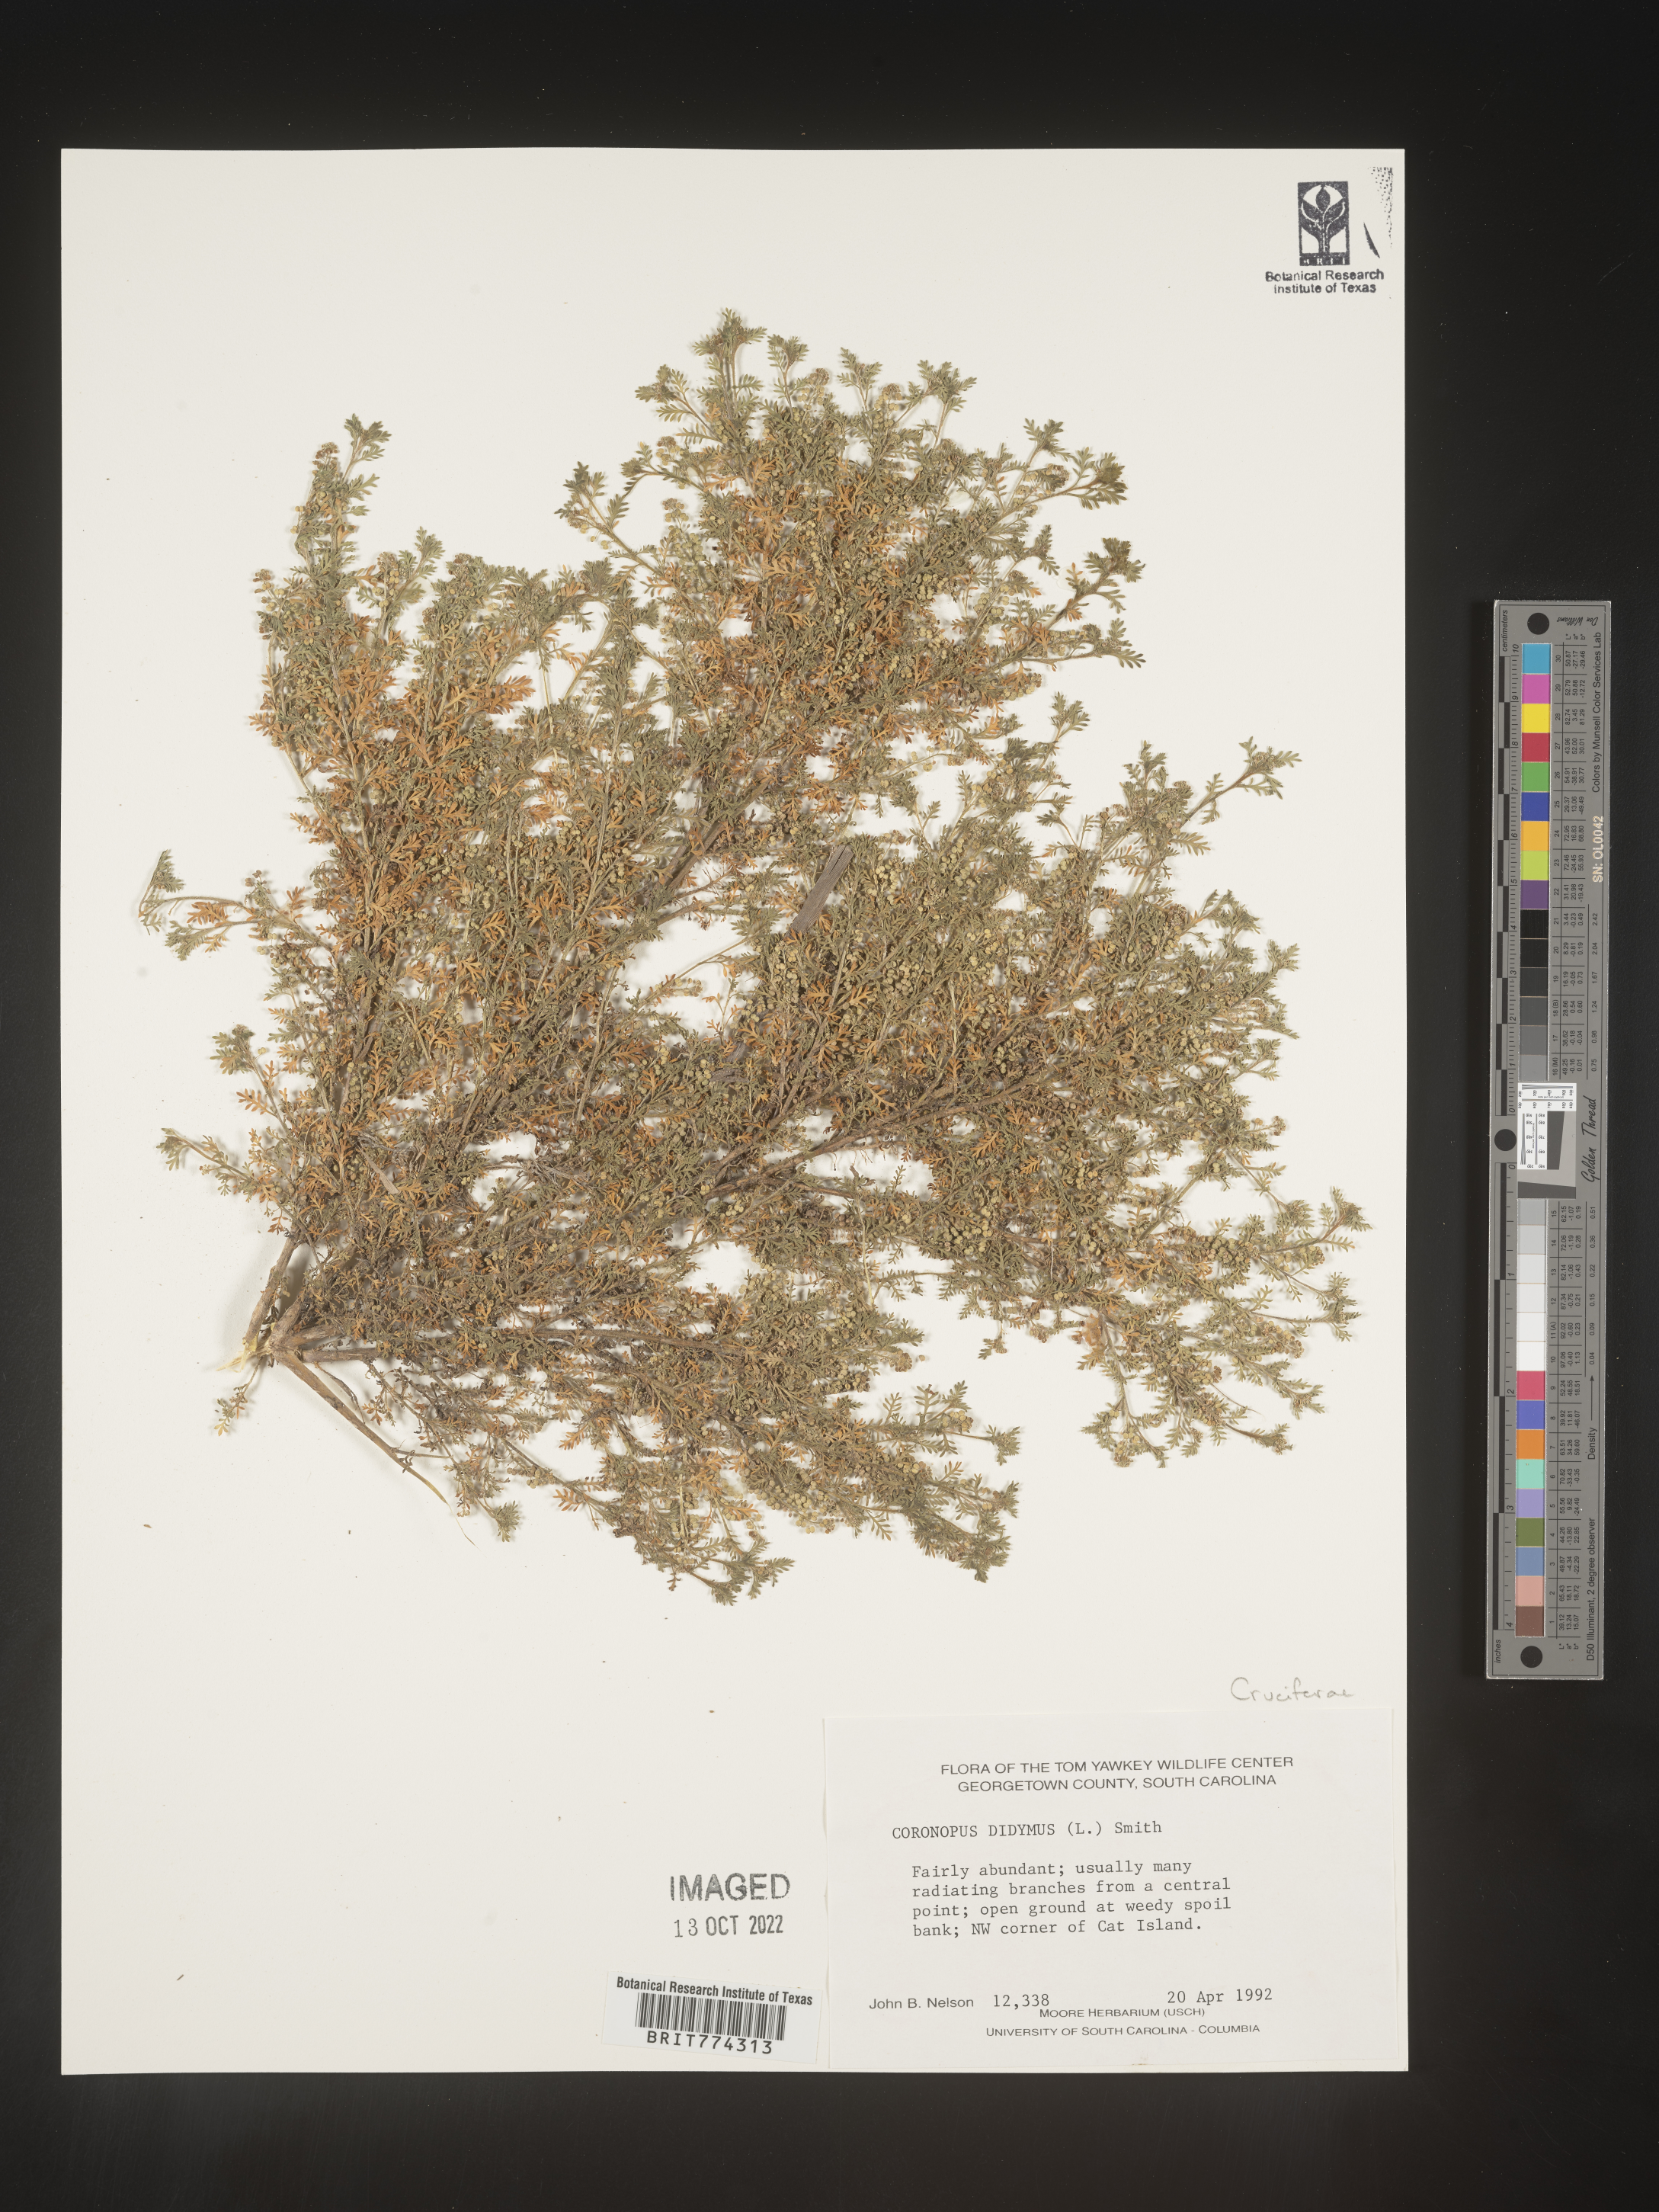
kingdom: Plantae
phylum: Tracheophyta
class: Magnoliopsida
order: Brassicales
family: Brassicaceae
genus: Coronopus
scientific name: Coronopus
